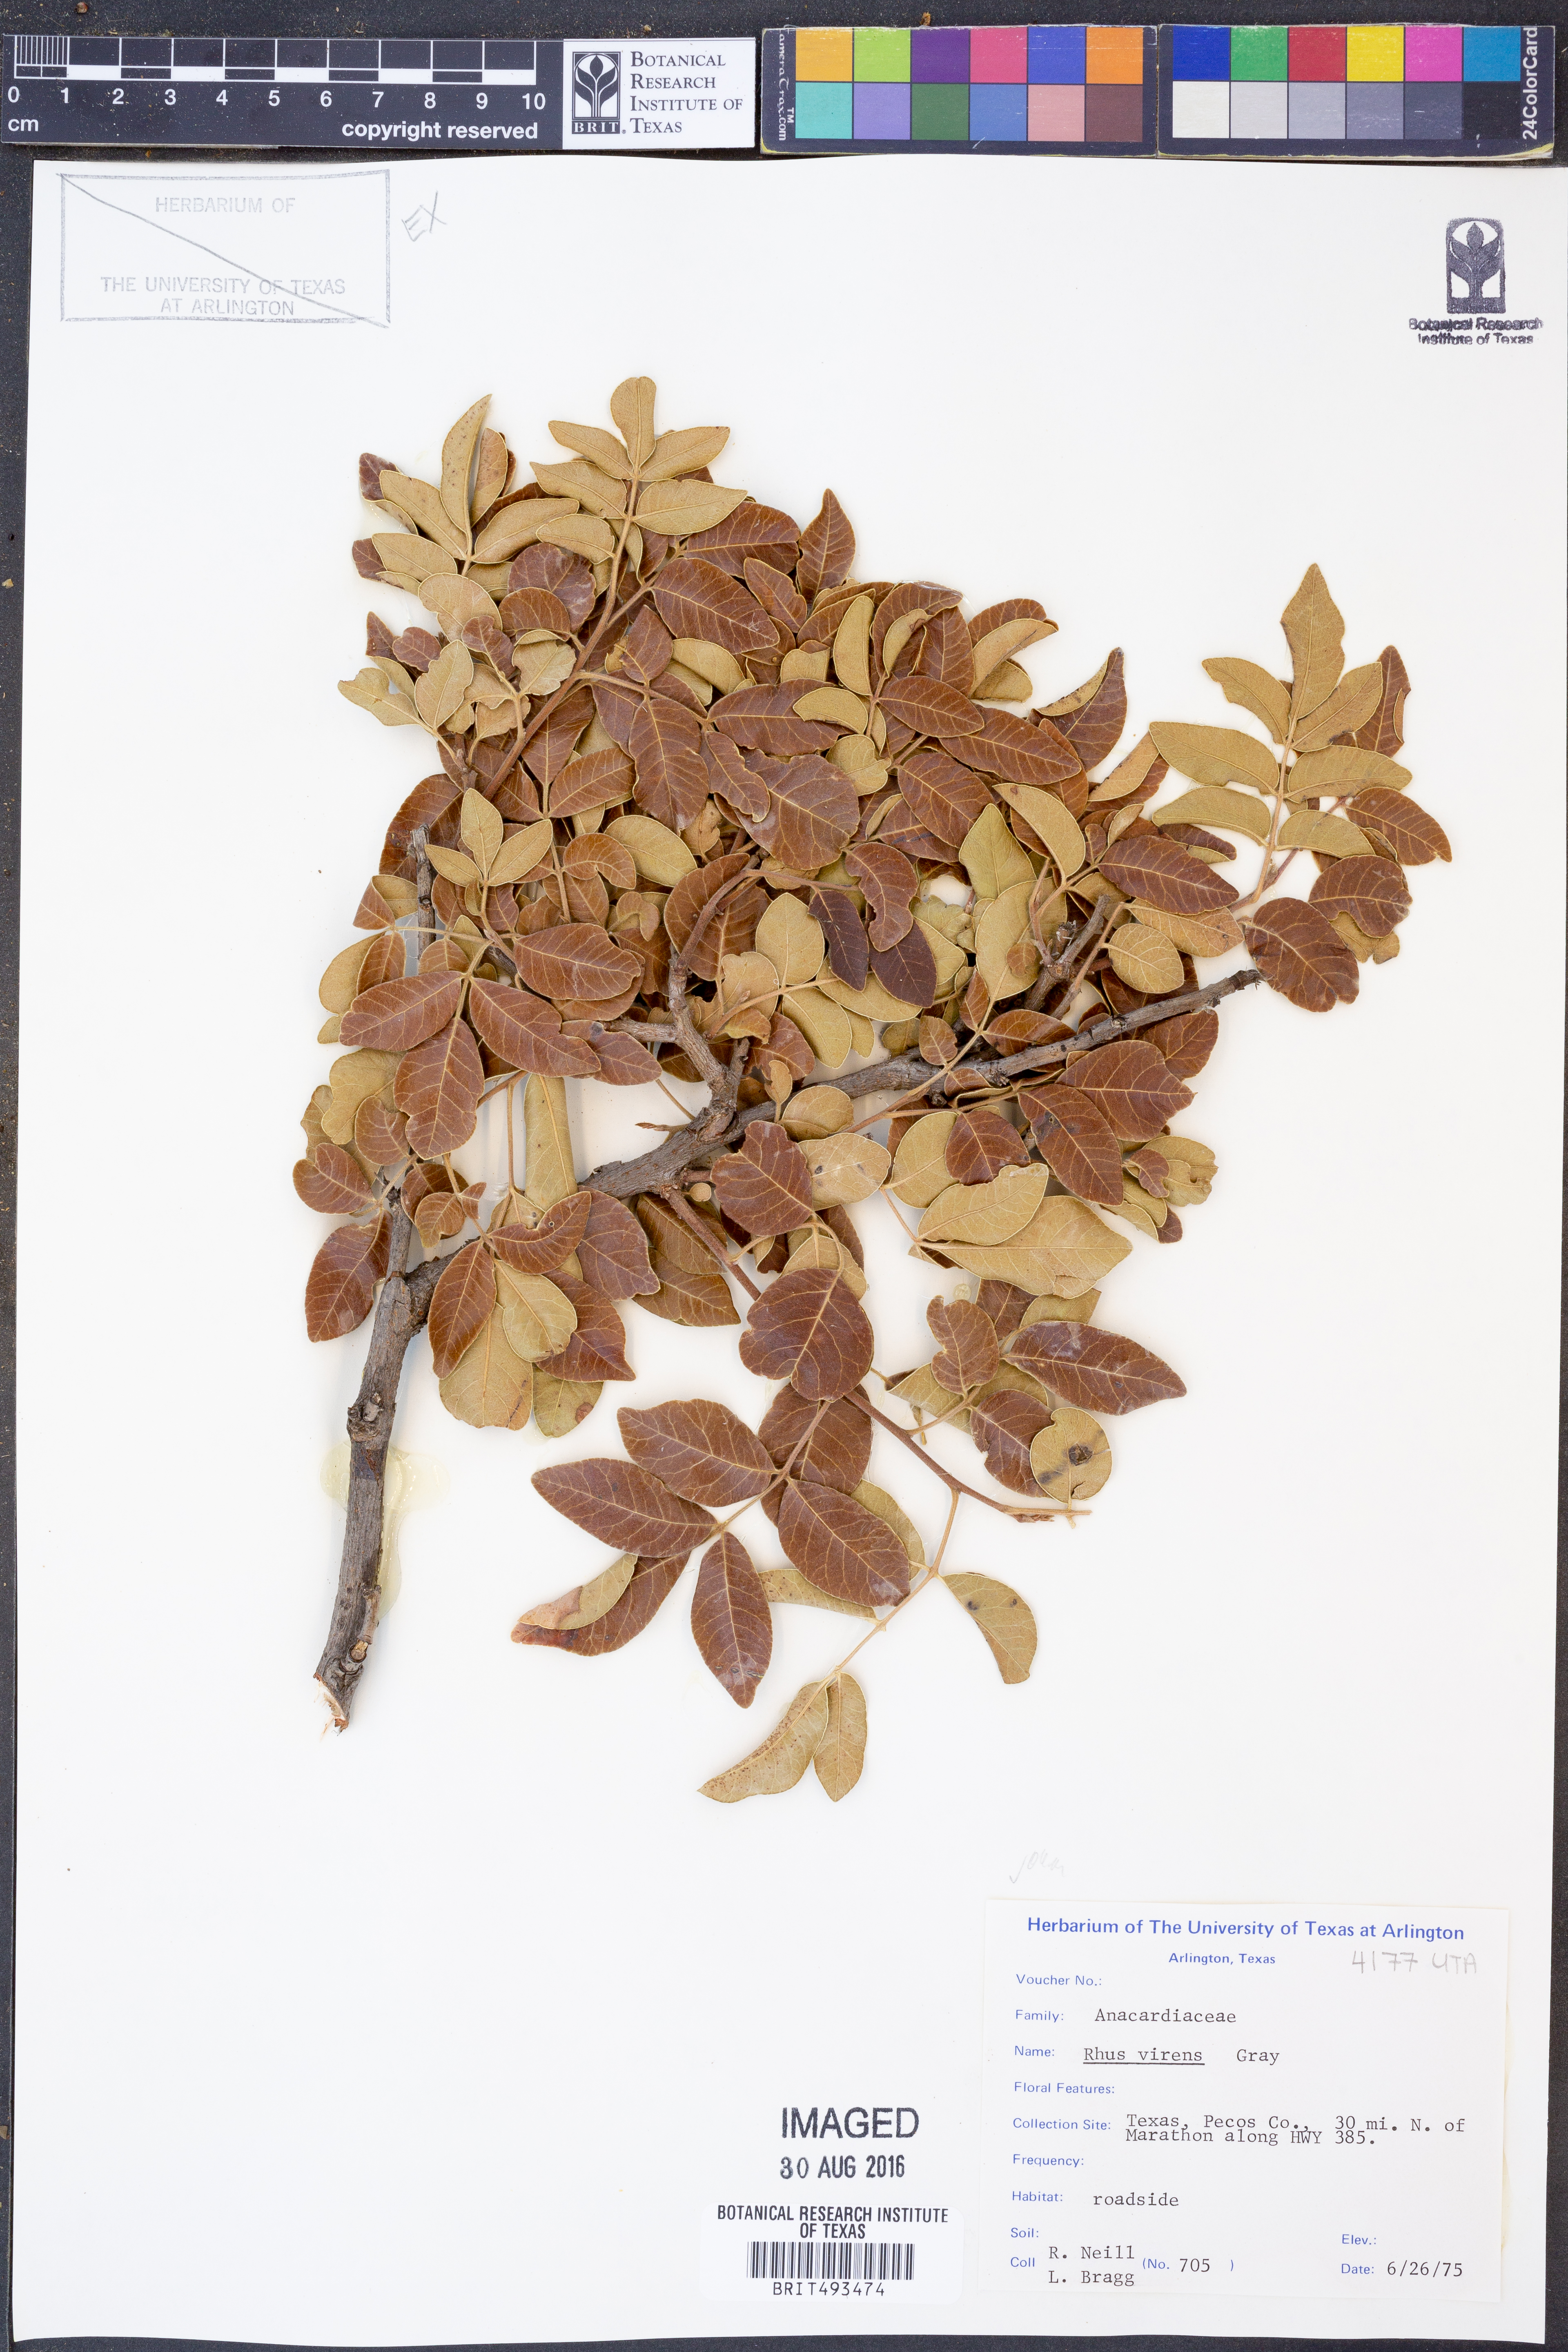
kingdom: Plantae
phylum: Tracheophyta
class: Magnoliopsida
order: Sapindales
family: Anacardiaceae
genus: Rhus
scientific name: Rhus virens
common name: Evergreen sumac
